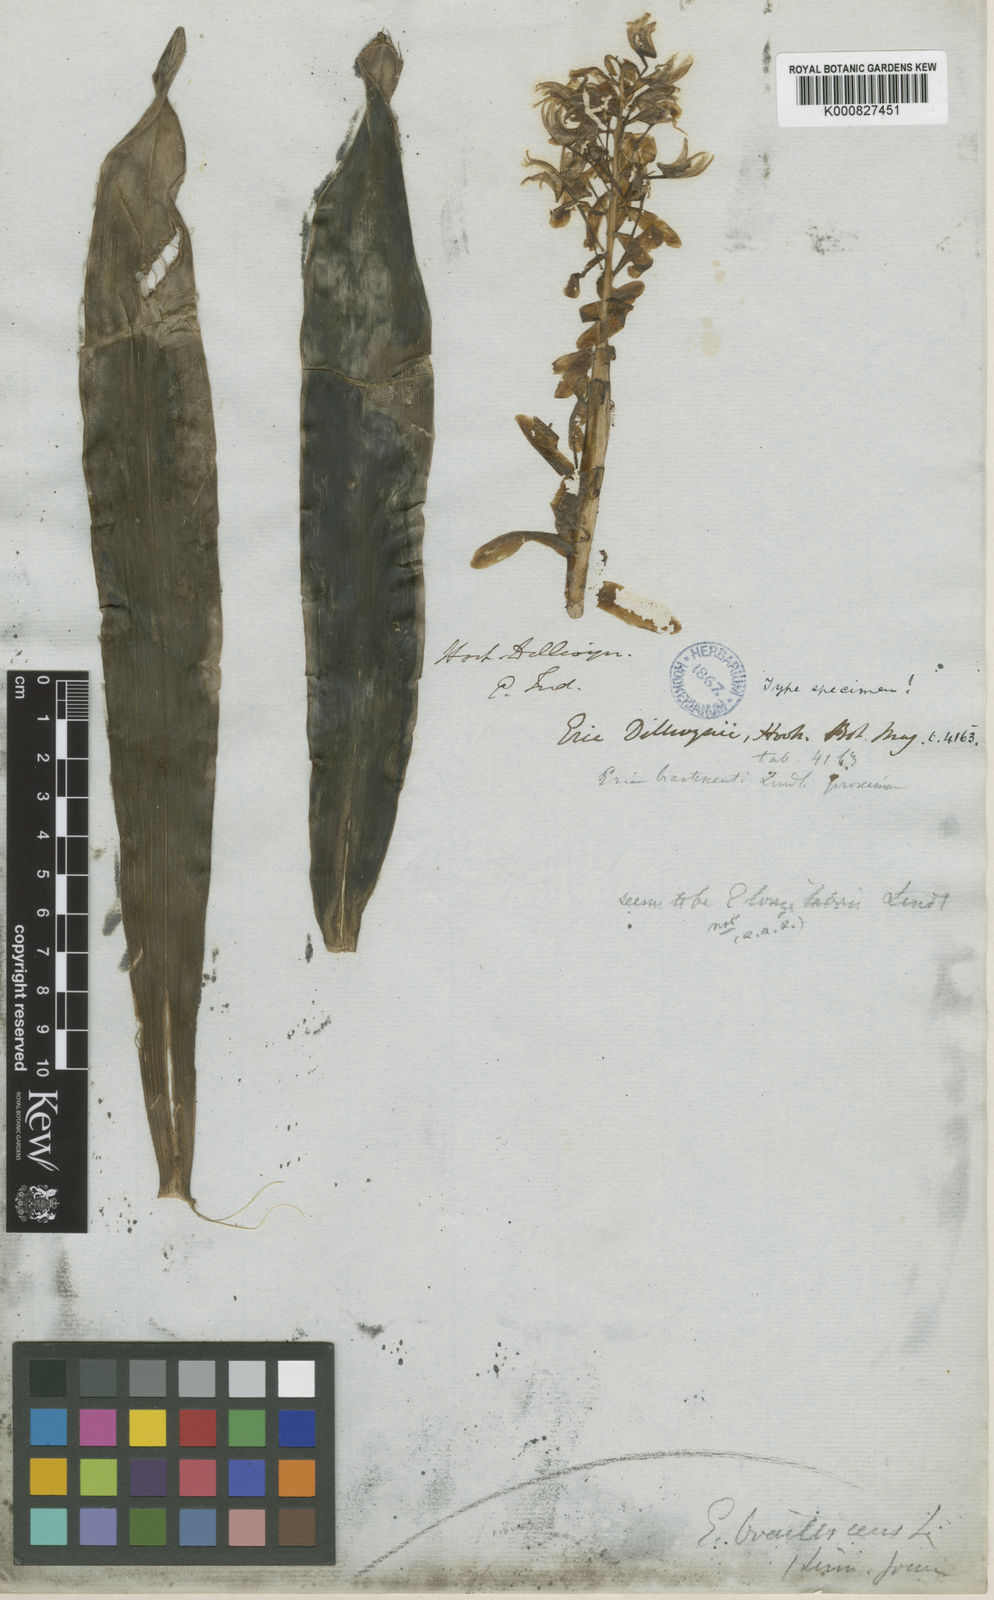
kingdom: Plantae
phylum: Tracheophyta
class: Liliopsida
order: Asparagales
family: Orchidaceae
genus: Pinalia
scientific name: Pinalia
